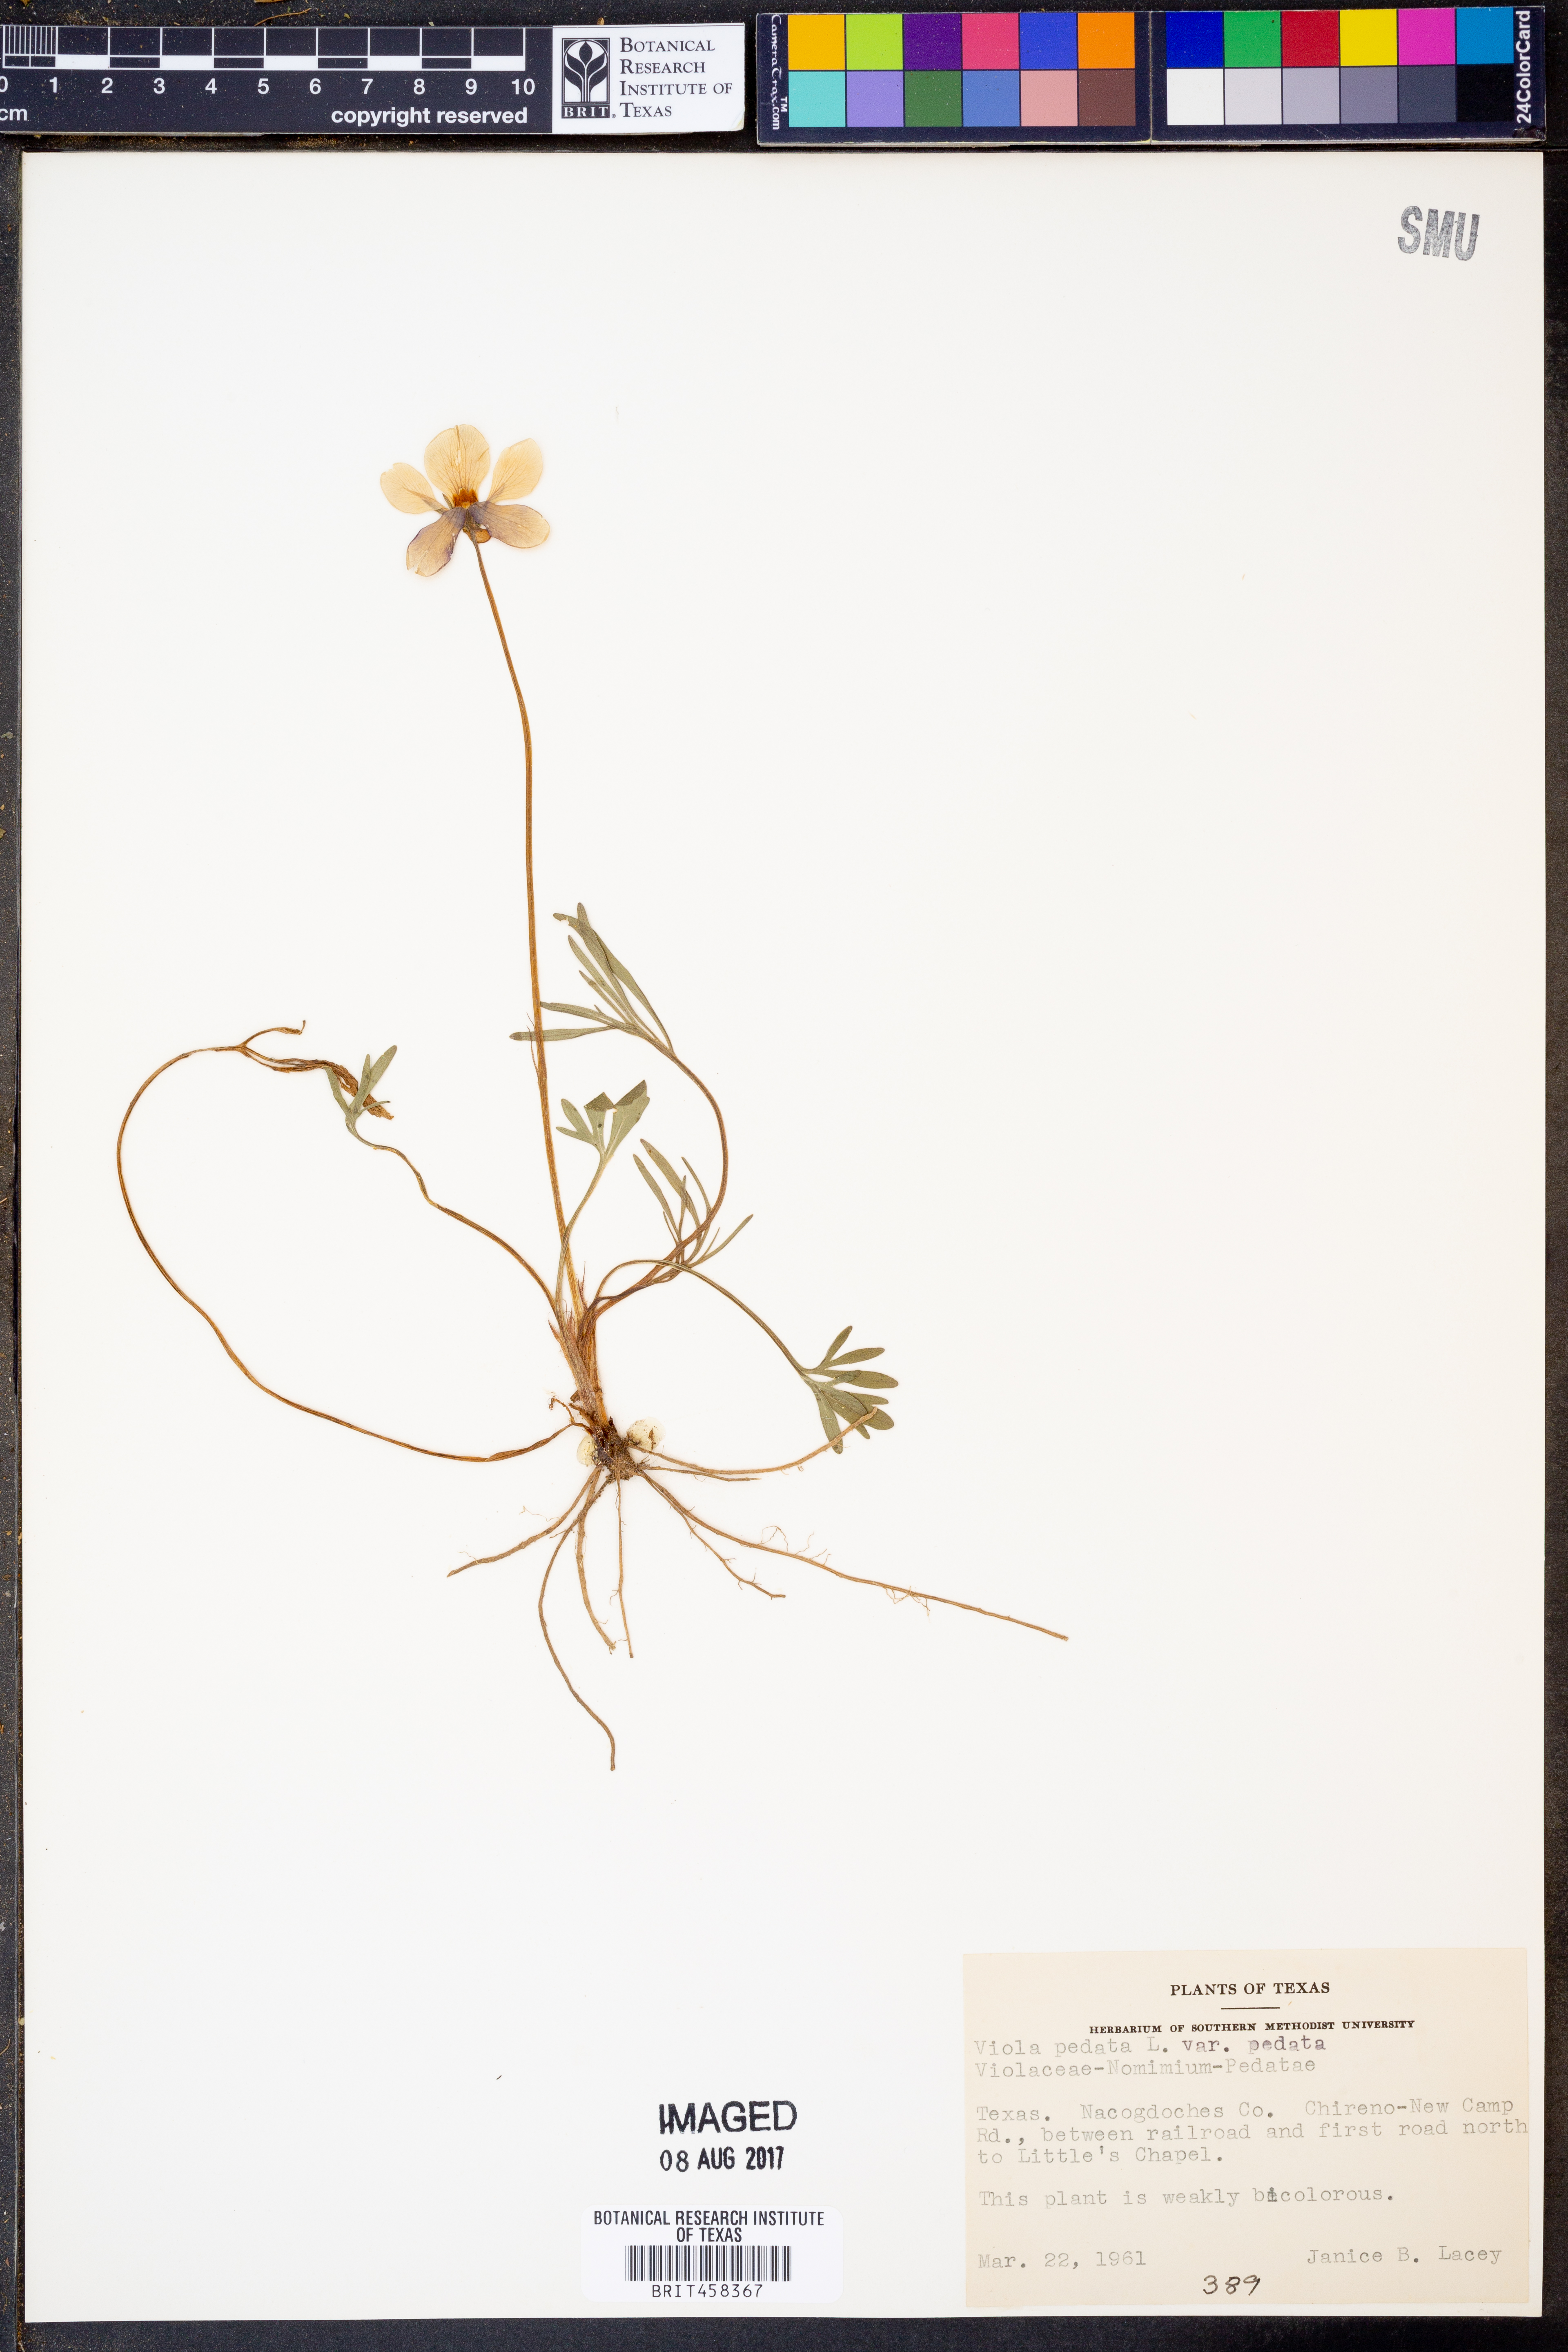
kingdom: Plantae
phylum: Tracheophyta
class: Magnoliopsida
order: Malpighiales
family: Violaceae
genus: Viola
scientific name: Viola pedata
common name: Pansy violet
